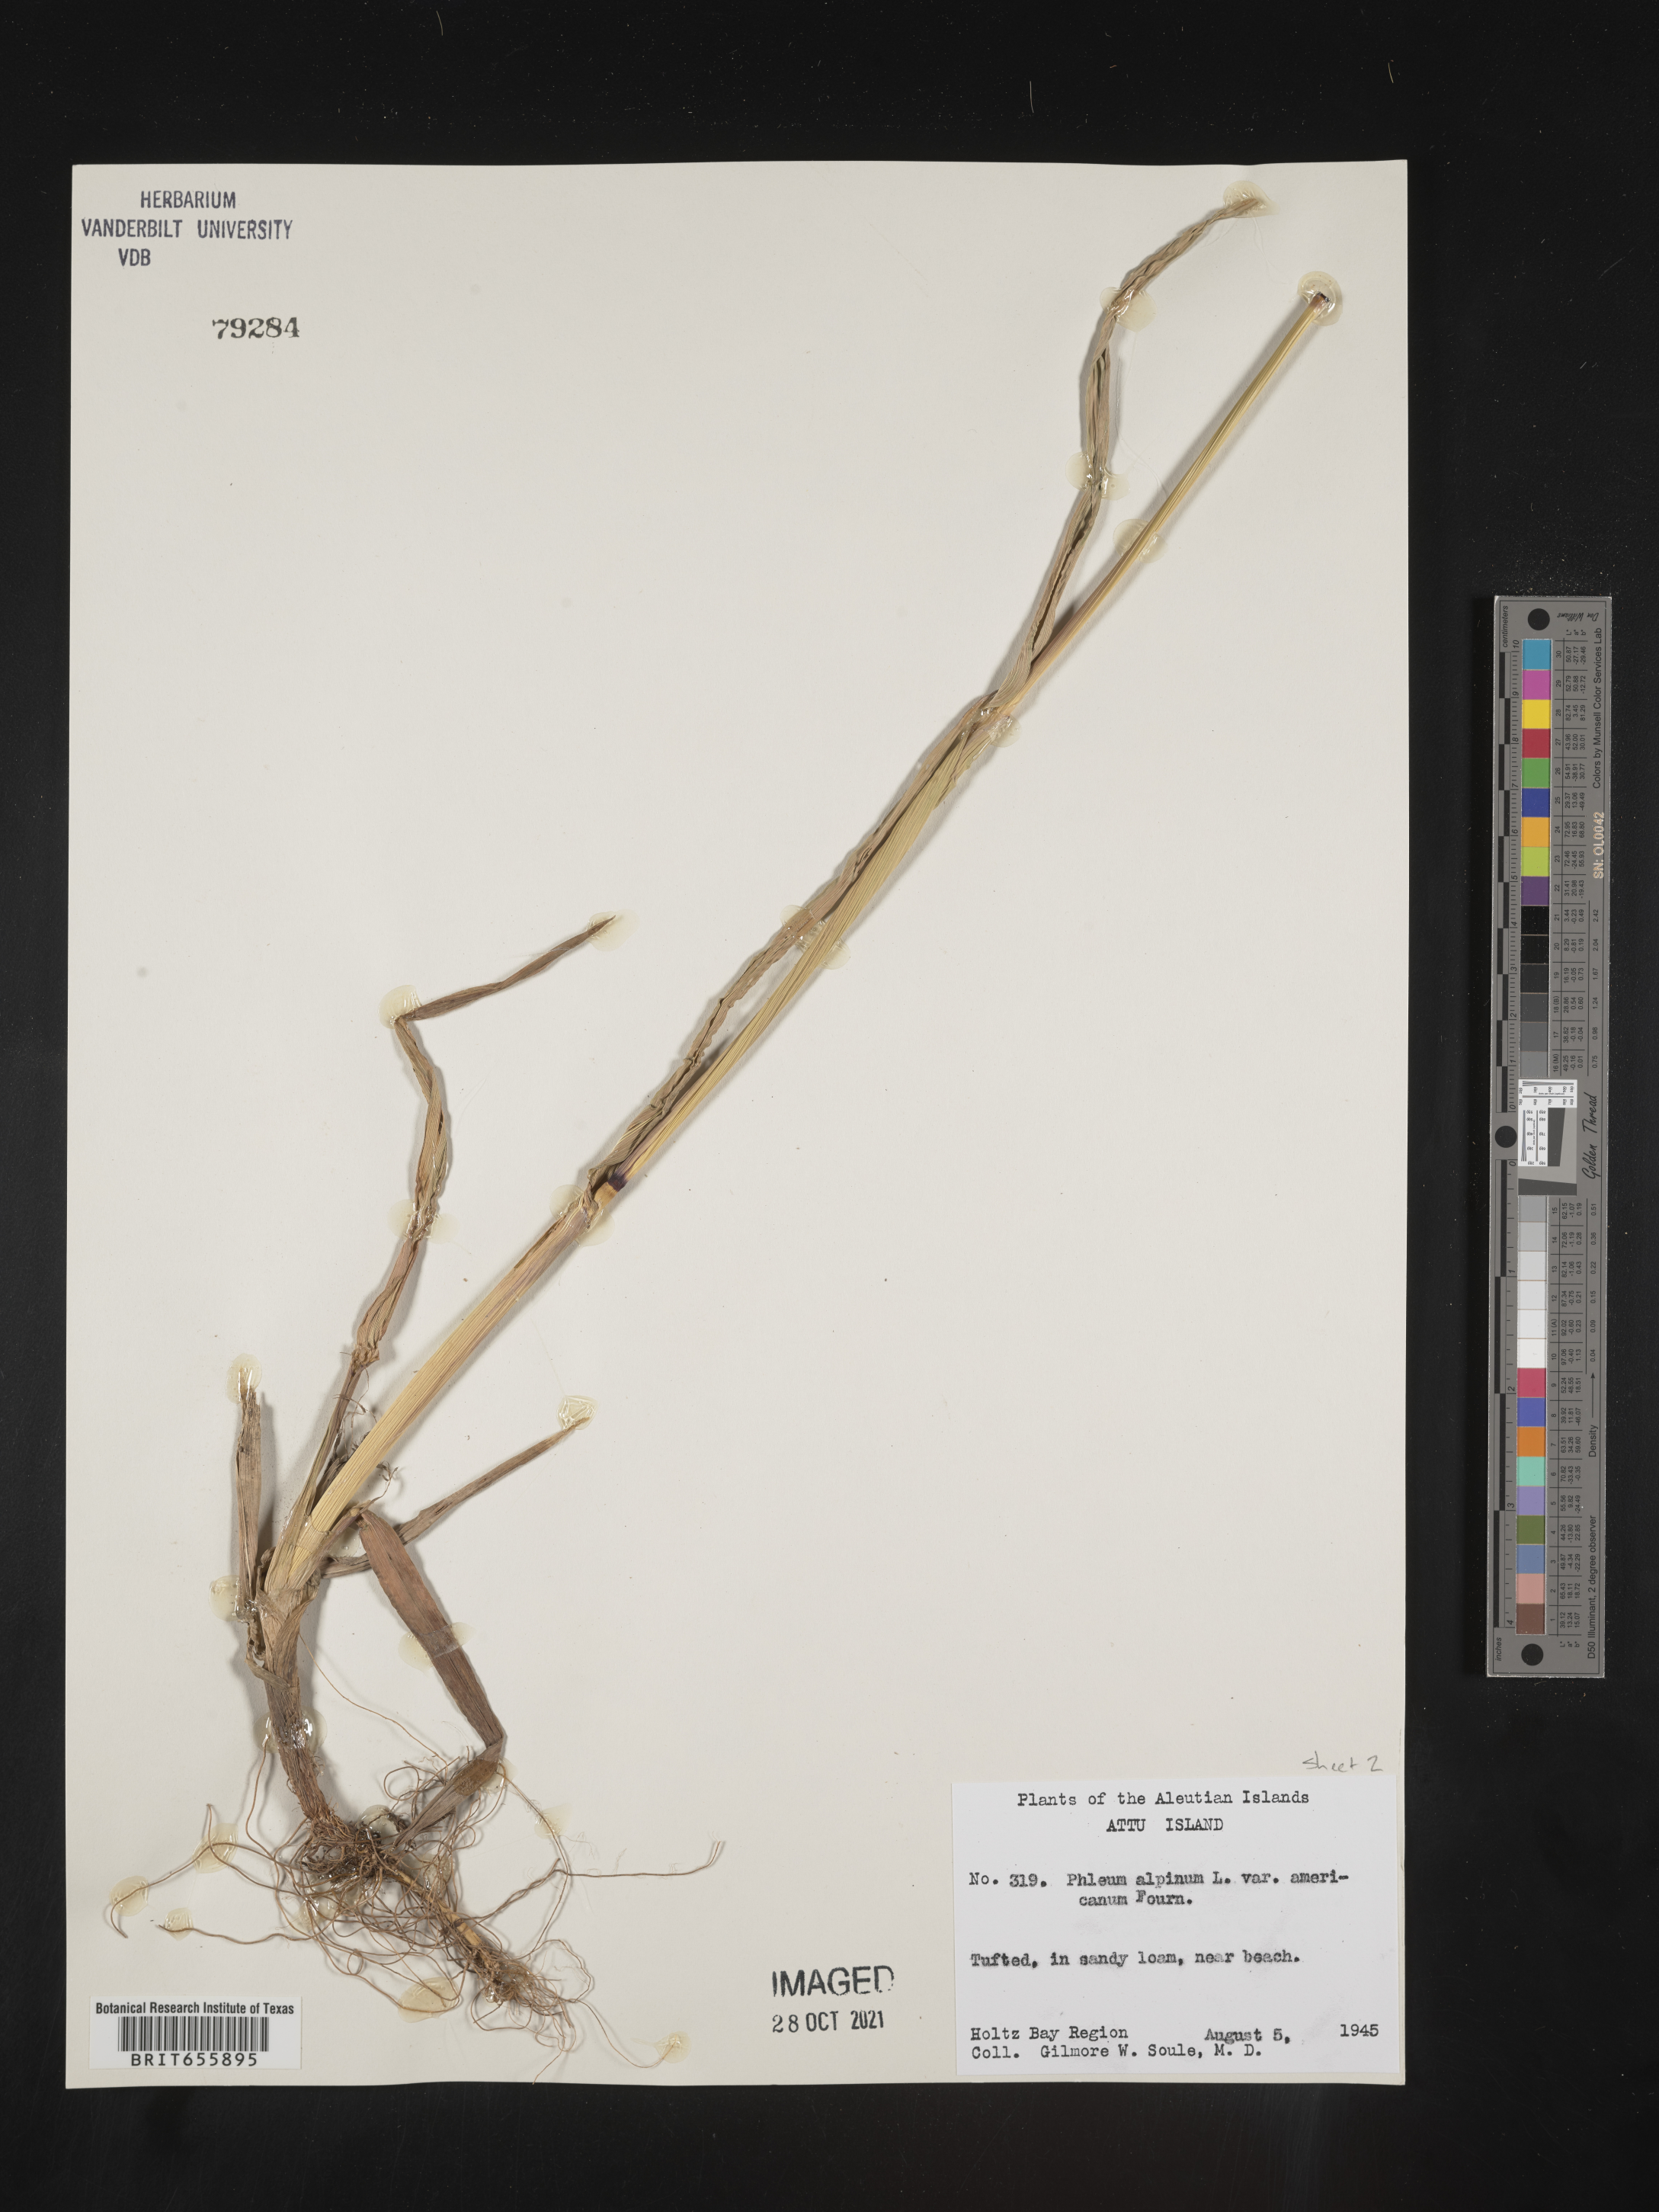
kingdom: Plantae
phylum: Tracheophyta
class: Liliopsida
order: Poales
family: Poaceae
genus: Phleum
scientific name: Phleum
